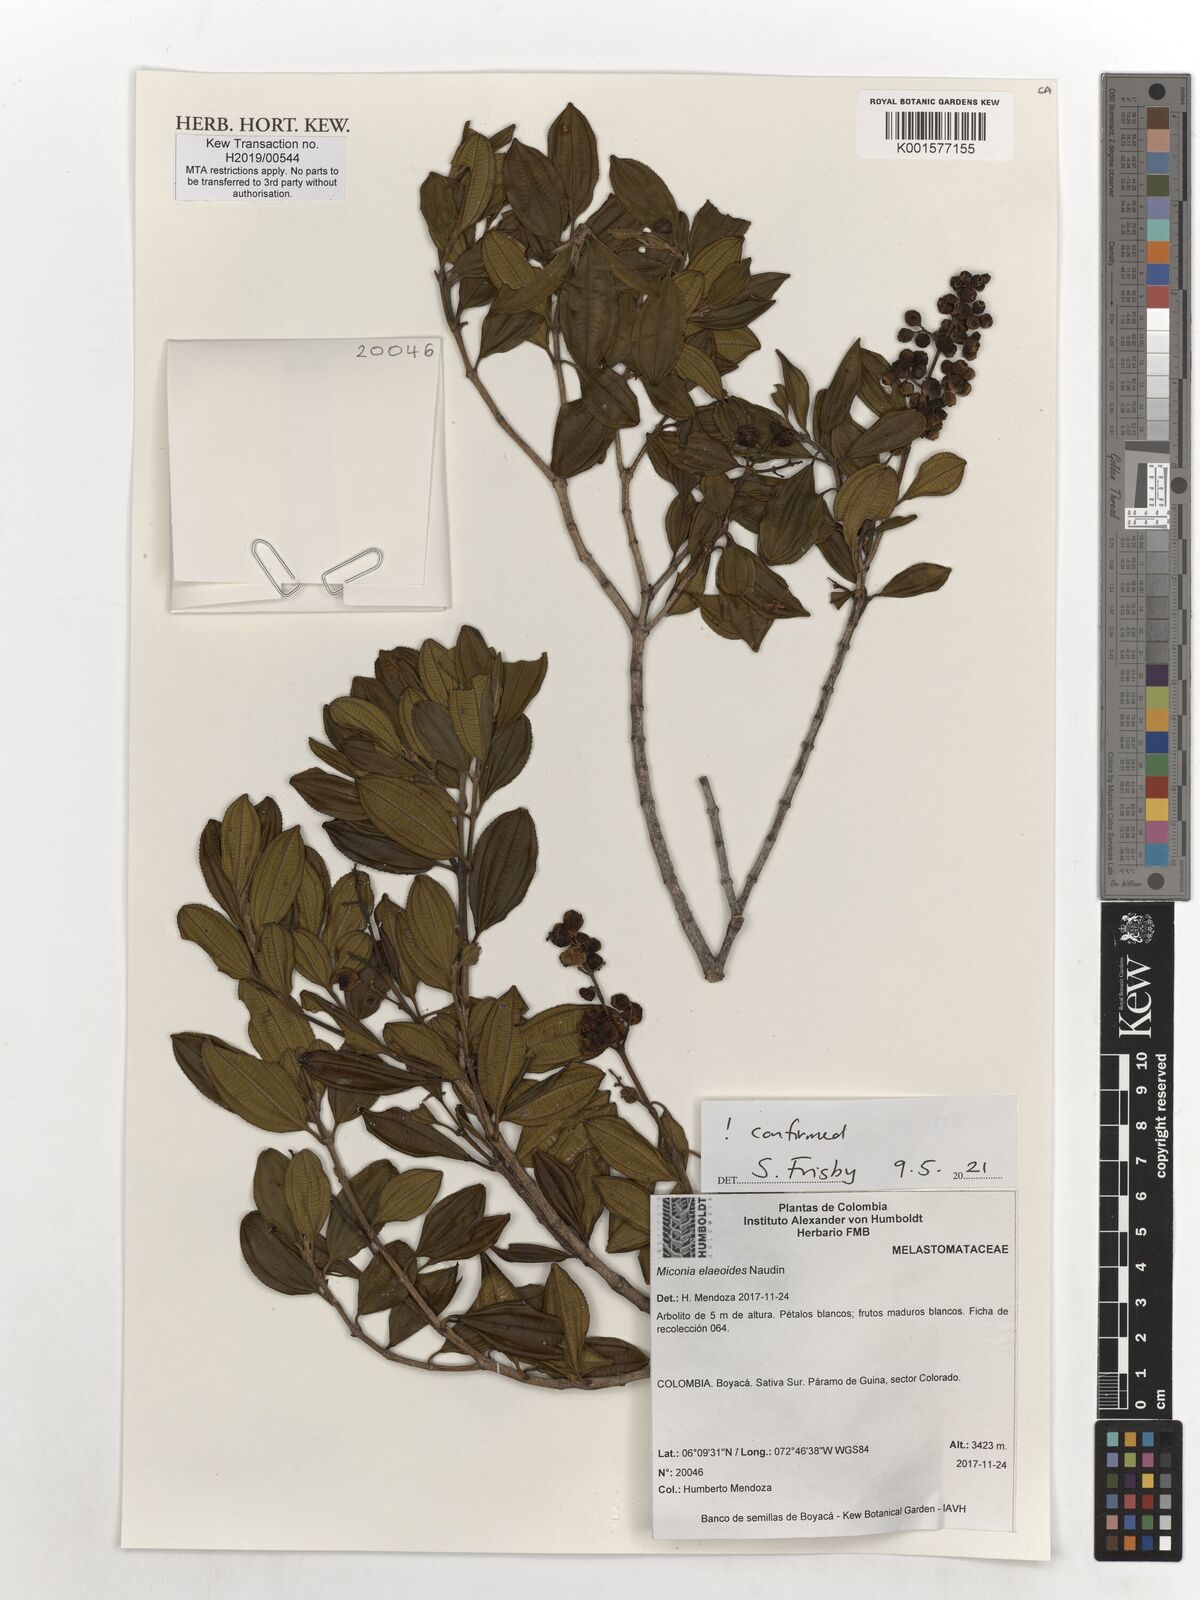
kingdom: Plantae
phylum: Tracheophyta
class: Magnoliopsida
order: Myrtales
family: Melastomataceae
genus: Miconia
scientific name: Miconia elaeoides
